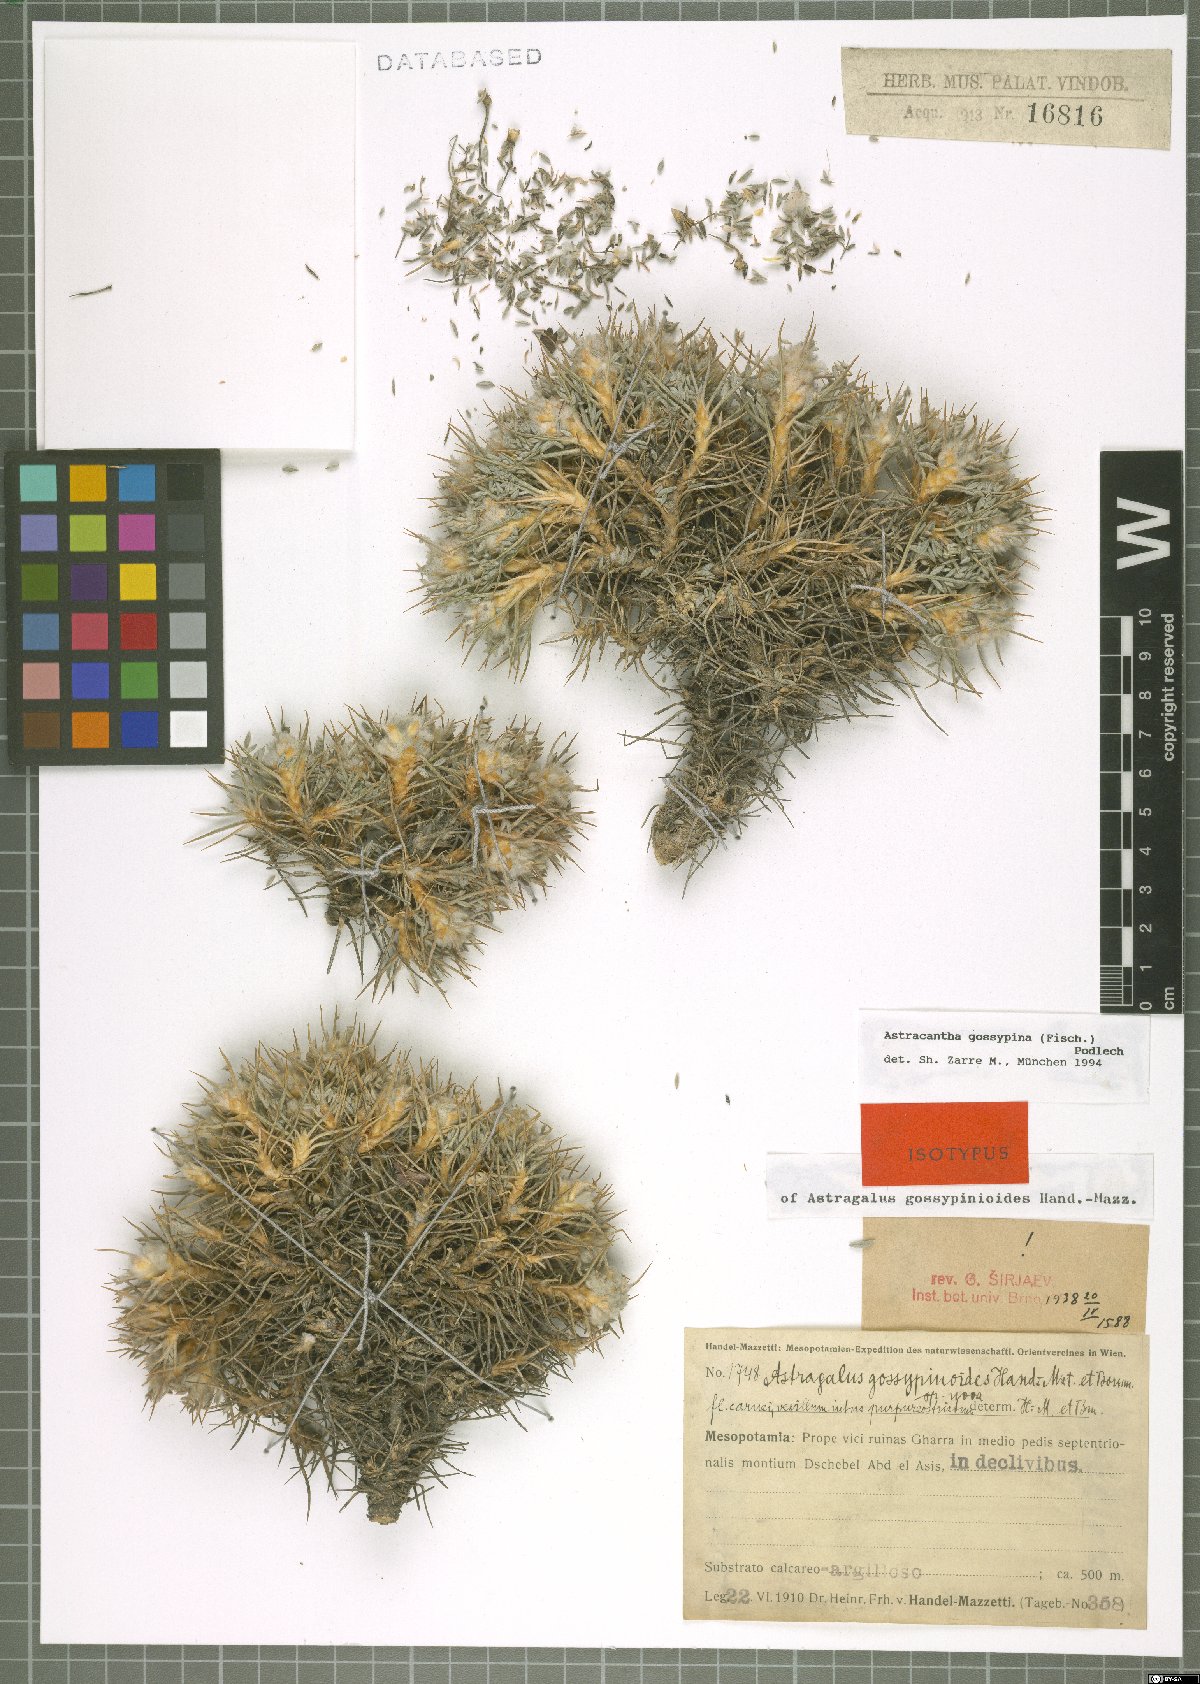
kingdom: Plantae
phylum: Tracheophyta
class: Magnoliopsida
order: Fabales
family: Fabaceae
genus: Astragalus
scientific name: Astragalus gossypinus
